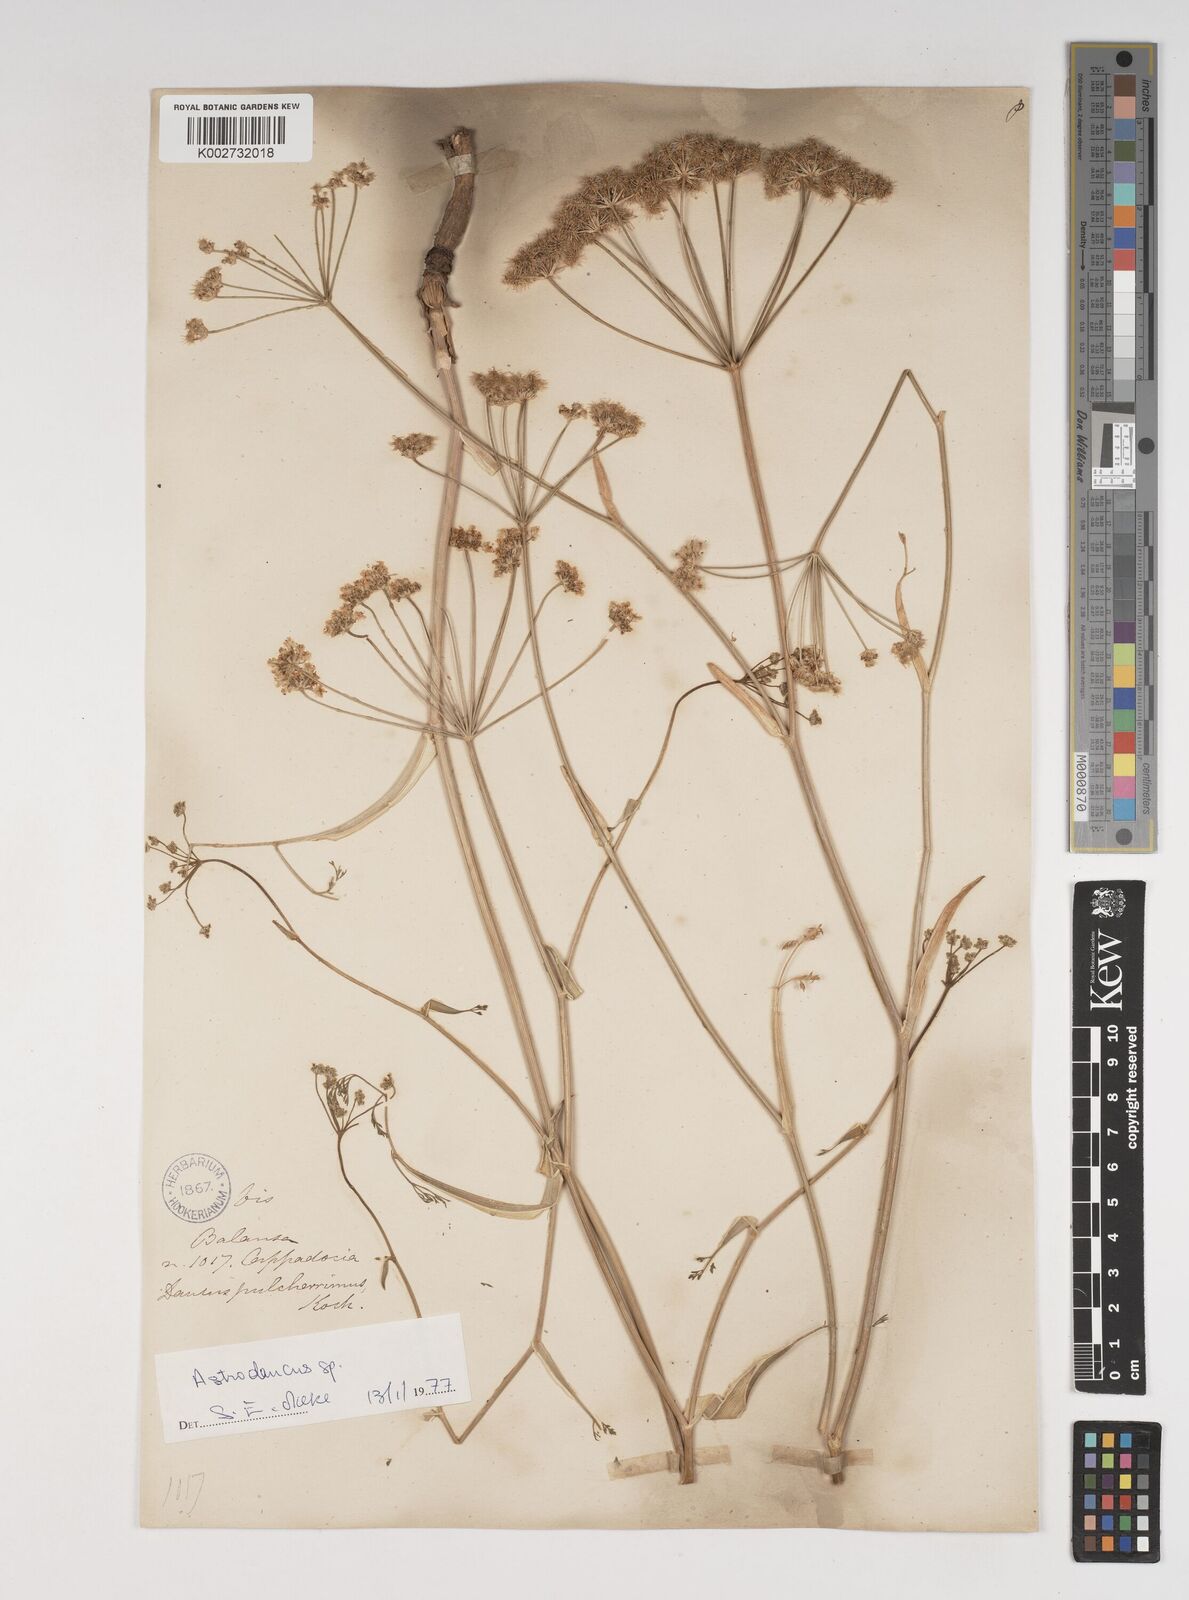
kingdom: Plantae
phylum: Tracheophyta
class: Magnoliopsida
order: Apiales
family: Apiaceae
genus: Astrodaucus
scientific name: Astrodaucus
